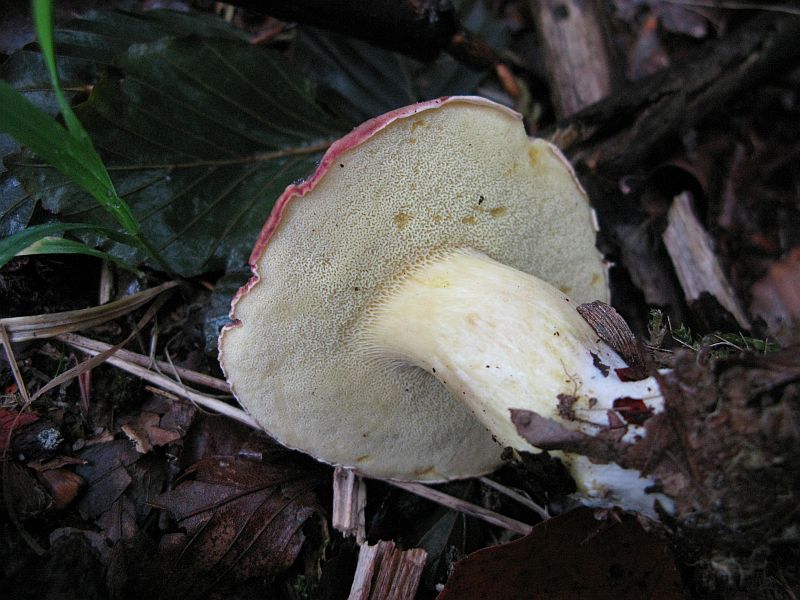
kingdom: Fungi
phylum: Basidiomycota
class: Agaricomycetes
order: Boletales
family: Boletaceae
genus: Xerocomellus
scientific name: Xerocomellus pruinatus
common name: dugget rørhat
